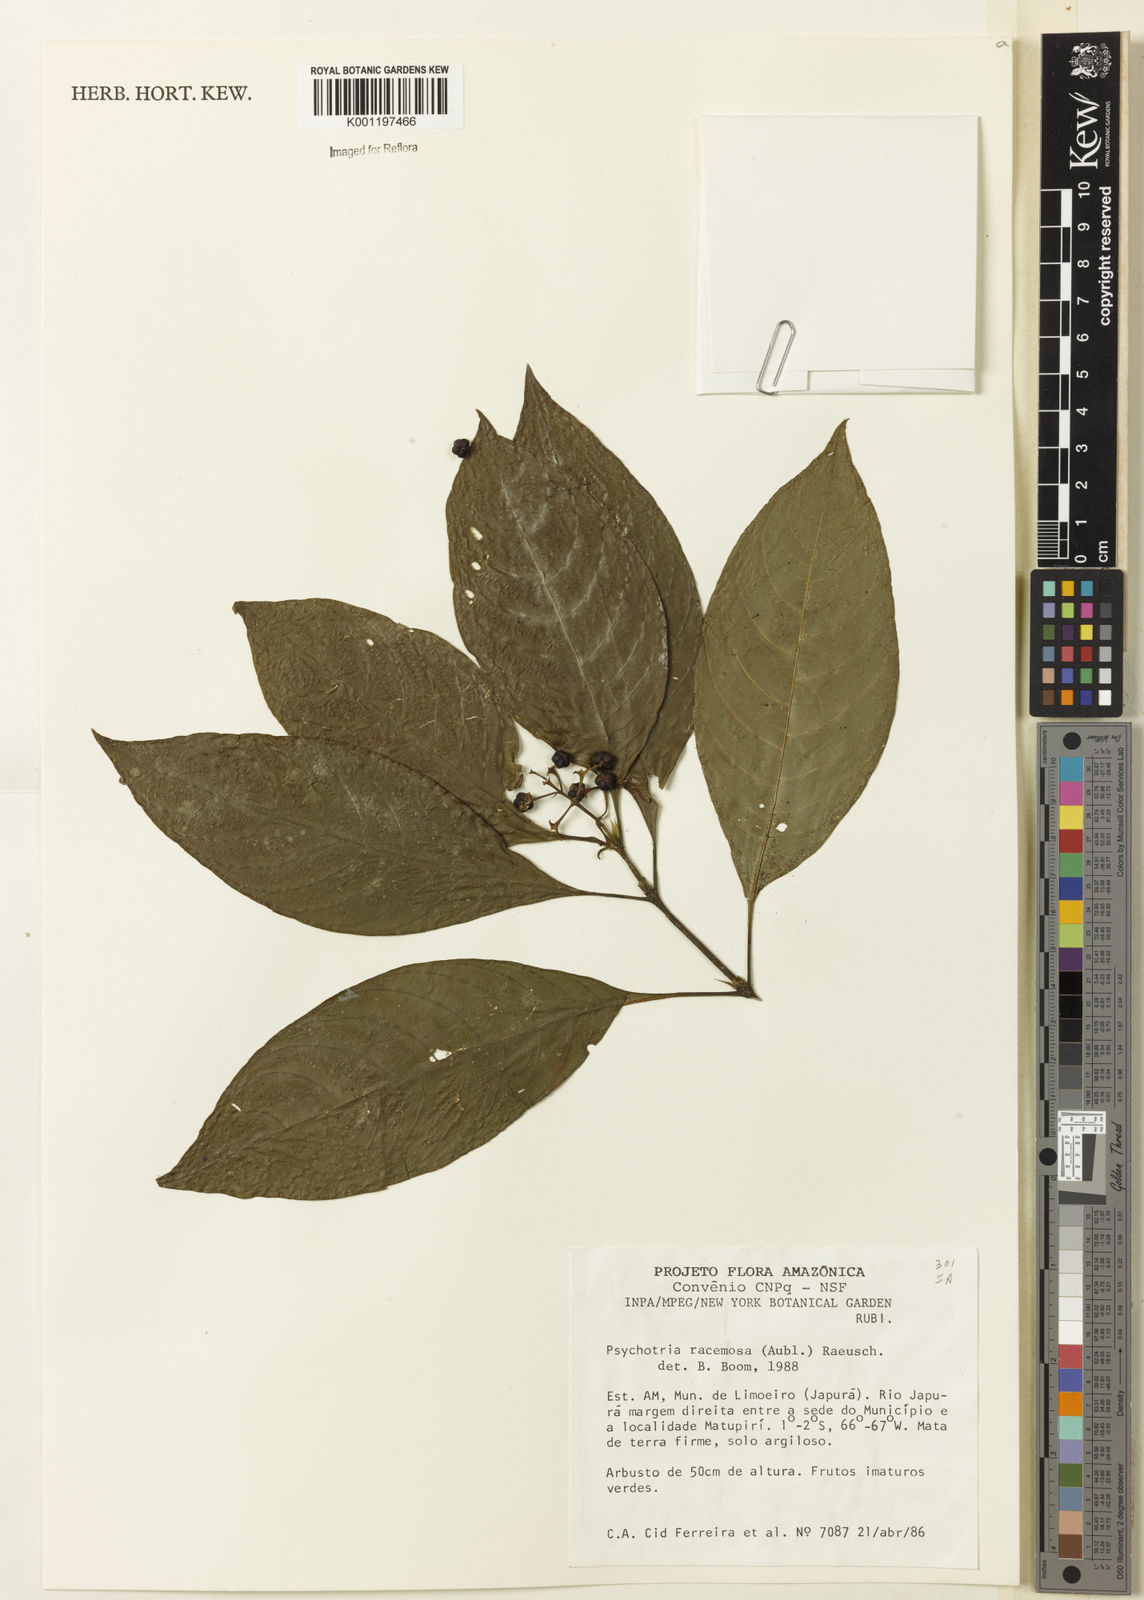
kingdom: Plantae
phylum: Tracheophyta
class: Magnoliopsida
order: Gentianales
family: Rubiaceae
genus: Palicourea
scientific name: Palicourea racemosa
